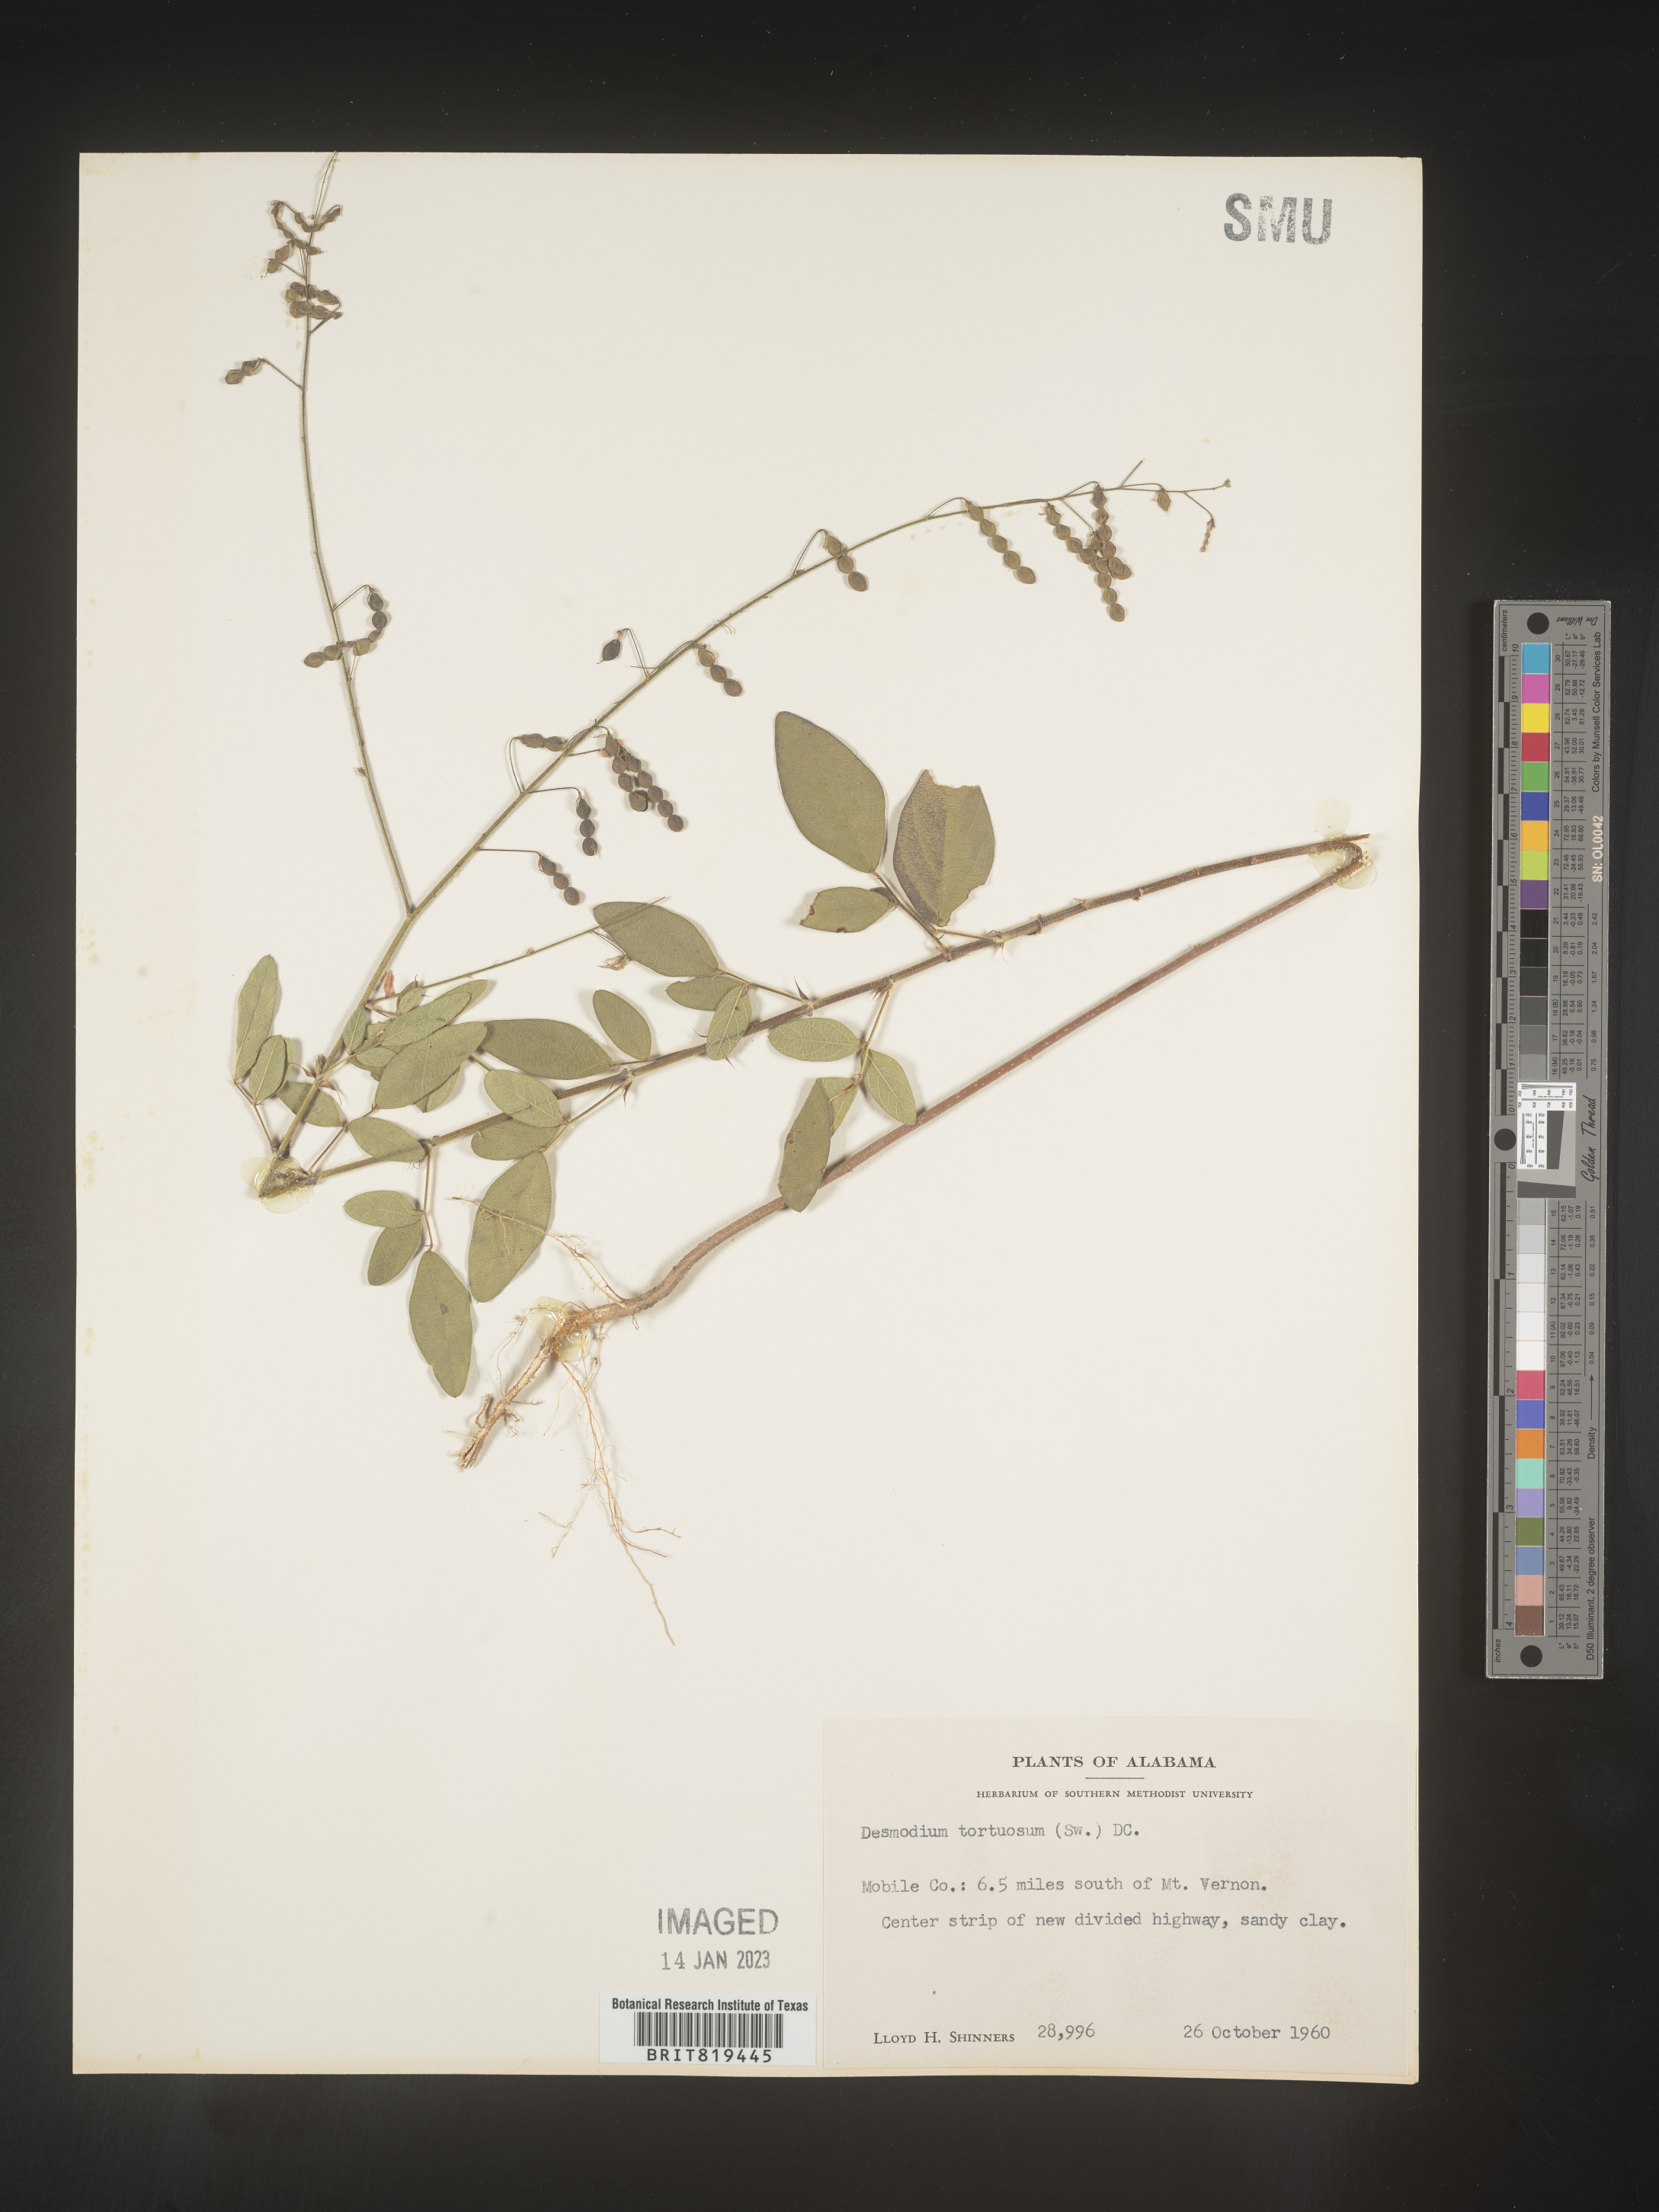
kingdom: Plantae
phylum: Tracheophyta
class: Magnoliopsida
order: Fabales
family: Fabaceae
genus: Desmodium
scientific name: Desmodium tortuosum
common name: Dixie ticktrefoil
